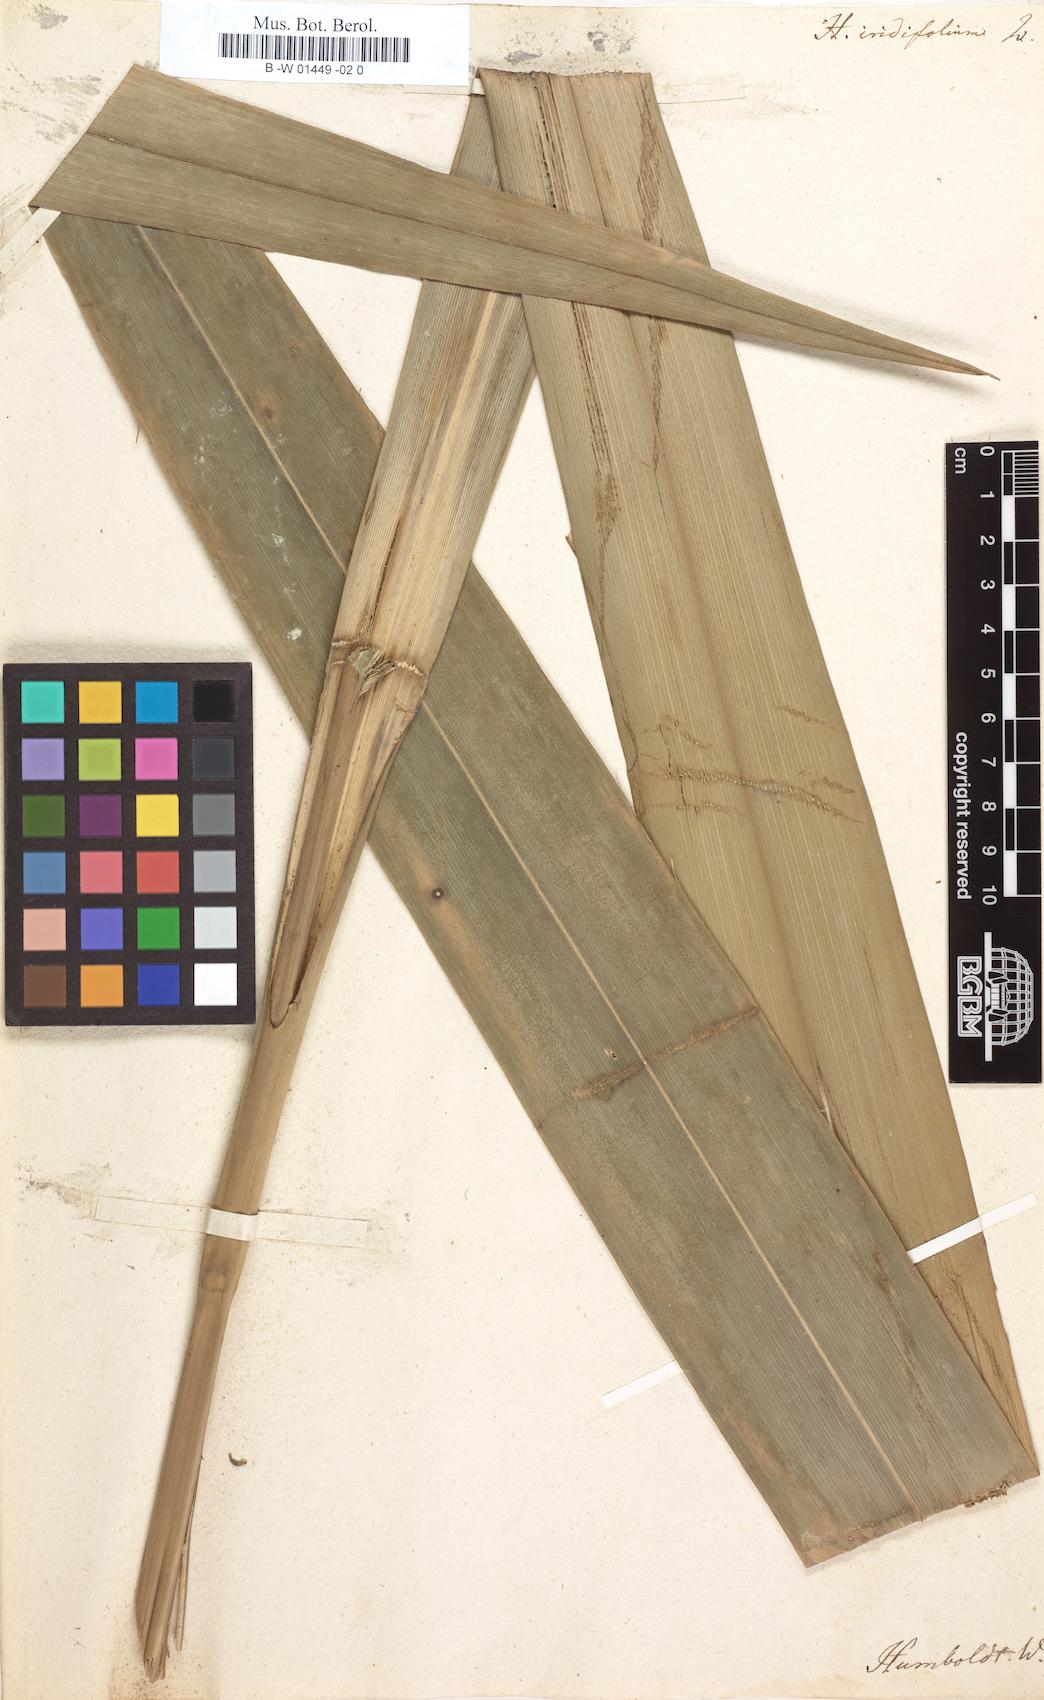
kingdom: Plantae
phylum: Tracheophyta
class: Liliopsida
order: Poales
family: Cyperaceae
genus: Diplasia
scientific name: Diplasia karatifolia
